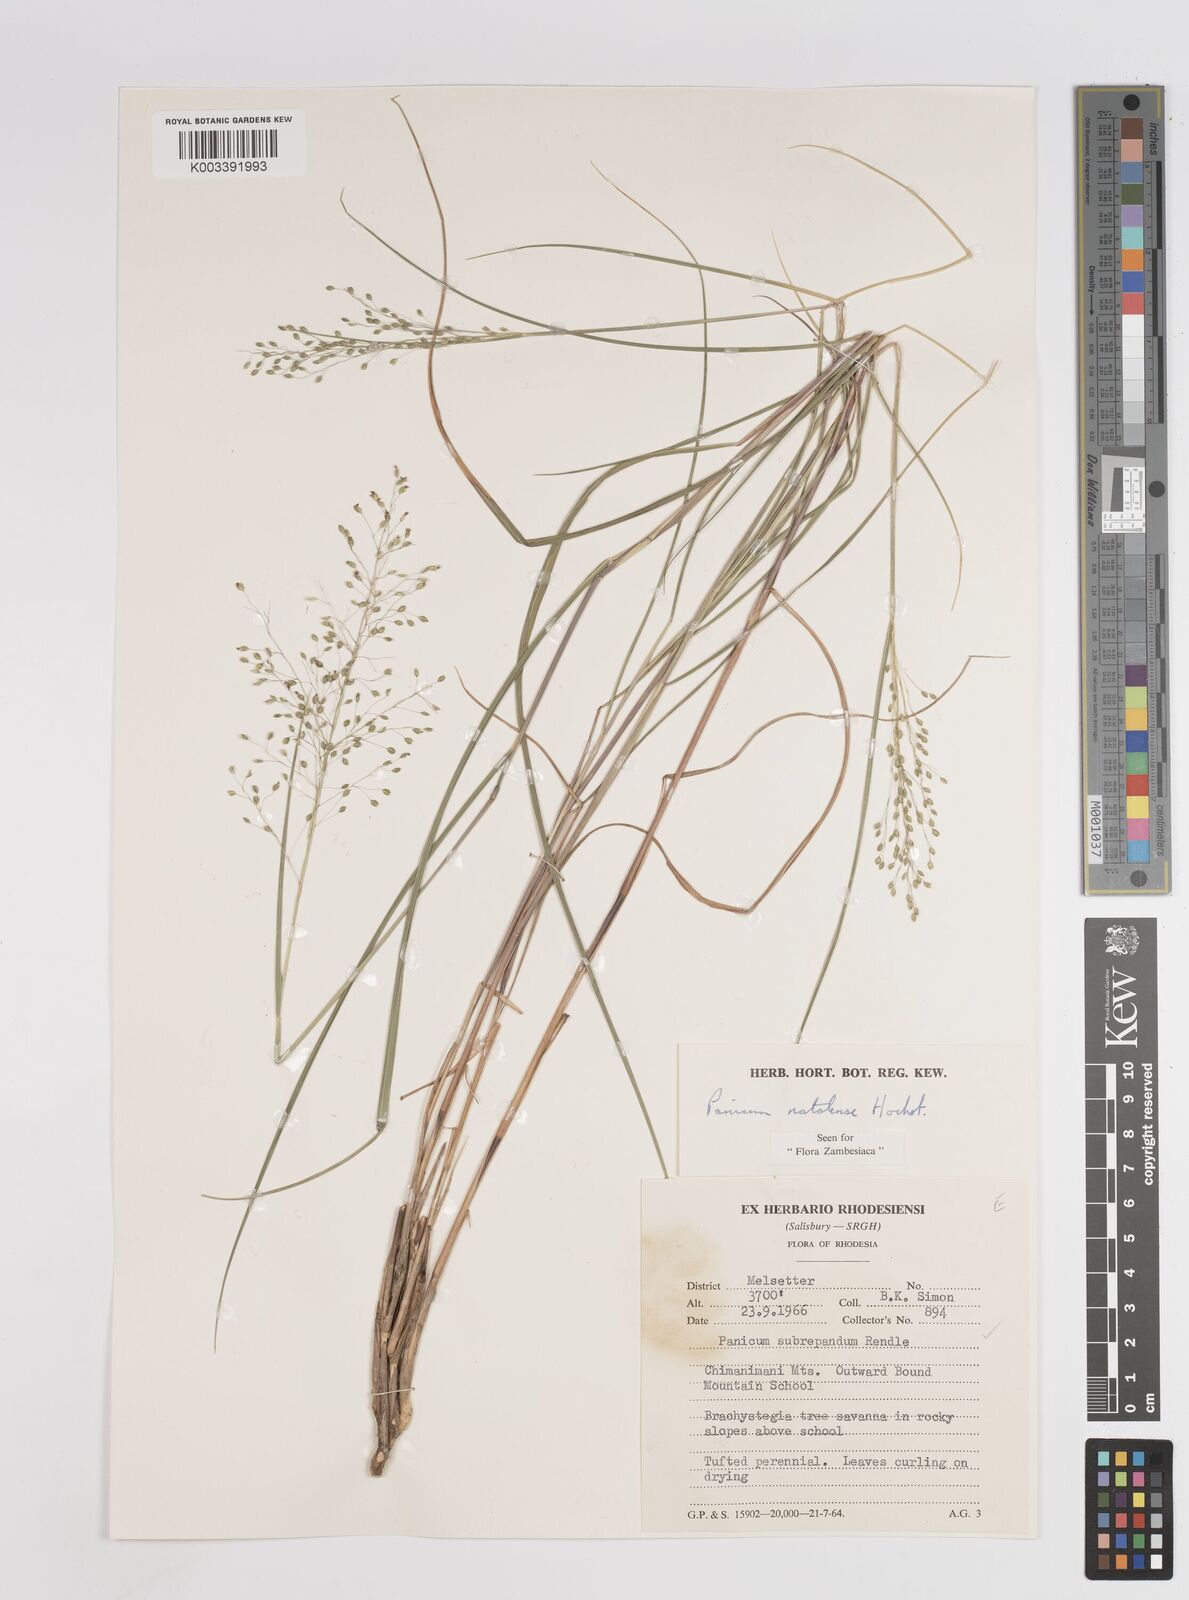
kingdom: Plantae
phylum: Tracheophyta
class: Liliopsida
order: Poales
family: Poaceae
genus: Trichanthecium
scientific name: Trichanthecium natalense
